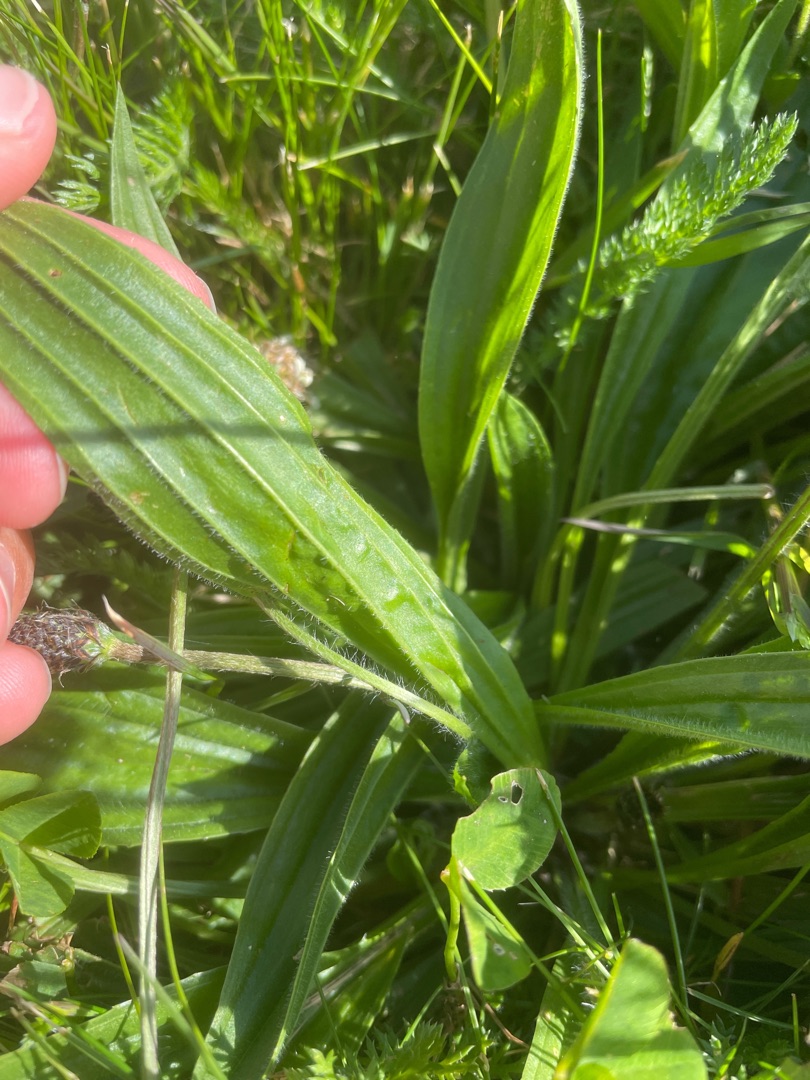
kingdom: Plantae
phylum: Tracheophyta
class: Magnoliopsida
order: Lamiales
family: Plantaginaceae
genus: Plantago
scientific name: Plantago lanceolata
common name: Lancet-vejbred
